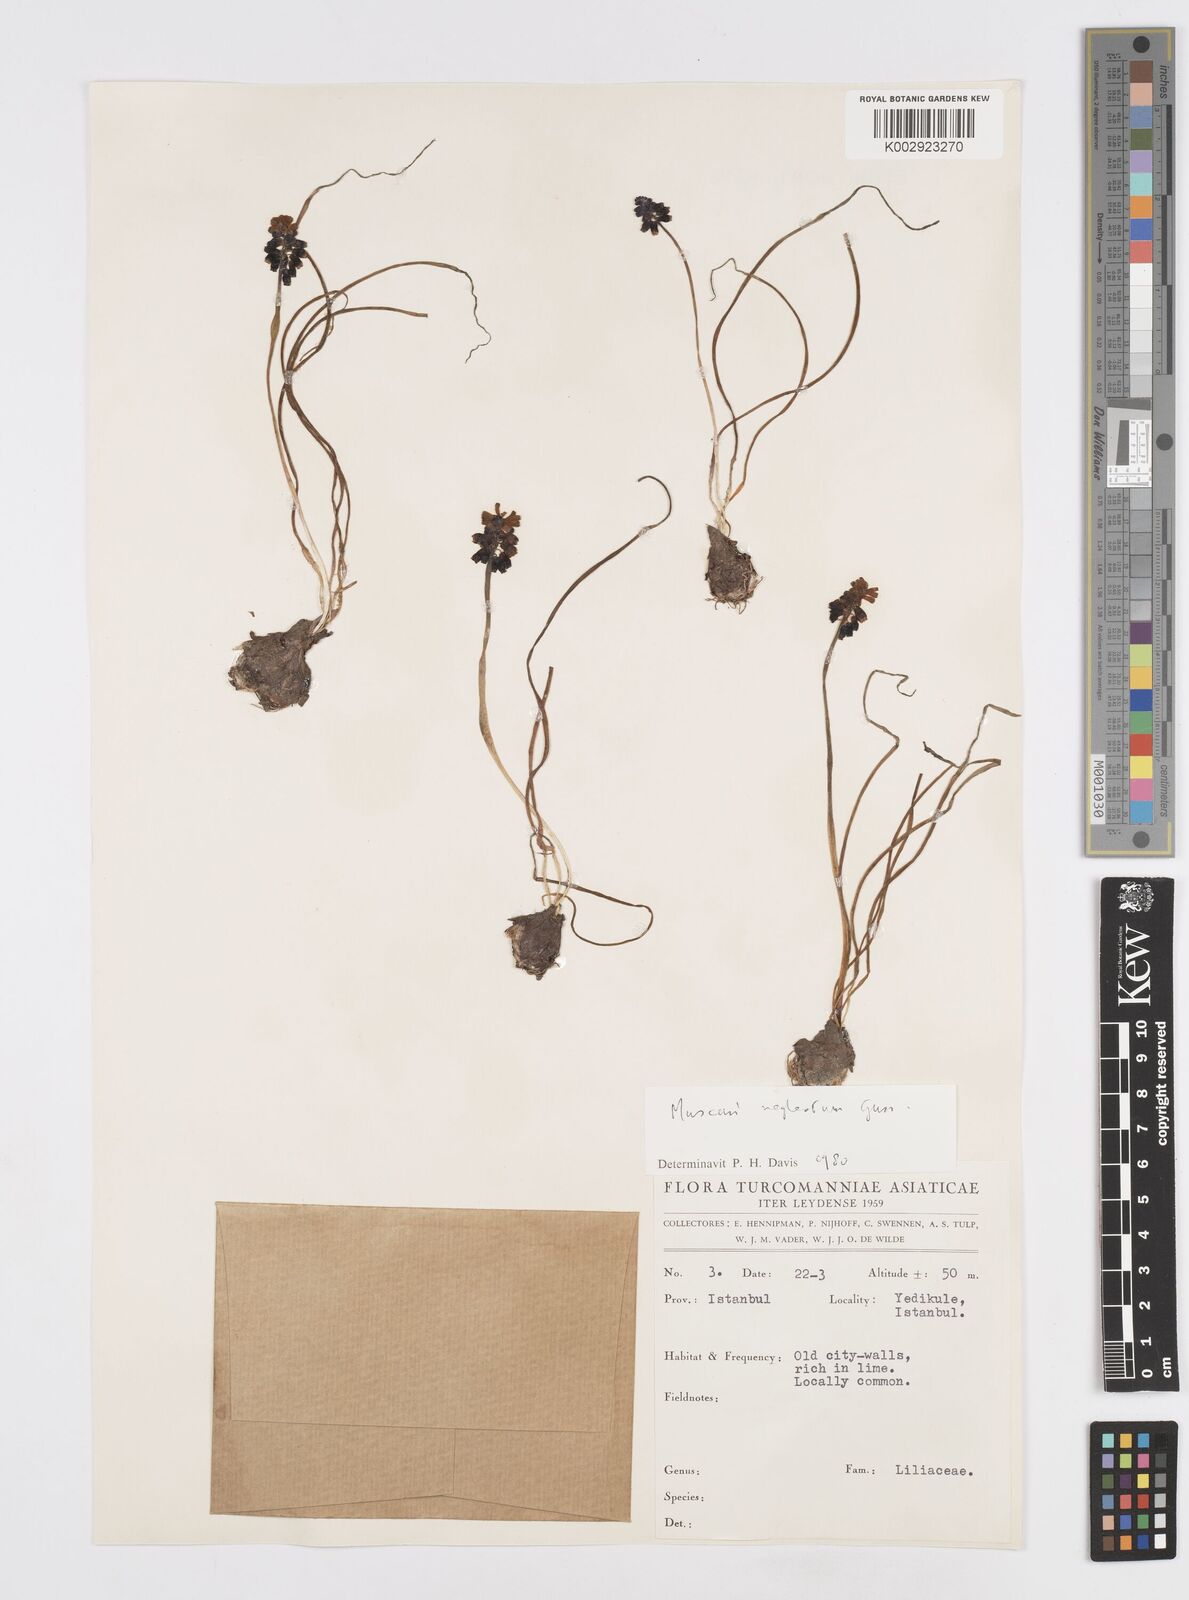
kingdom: Plantae
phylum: Tracheophyta
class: Liliopsida
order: Asparagales
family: Asparagaceae
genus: Muscari
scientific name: Muscari
